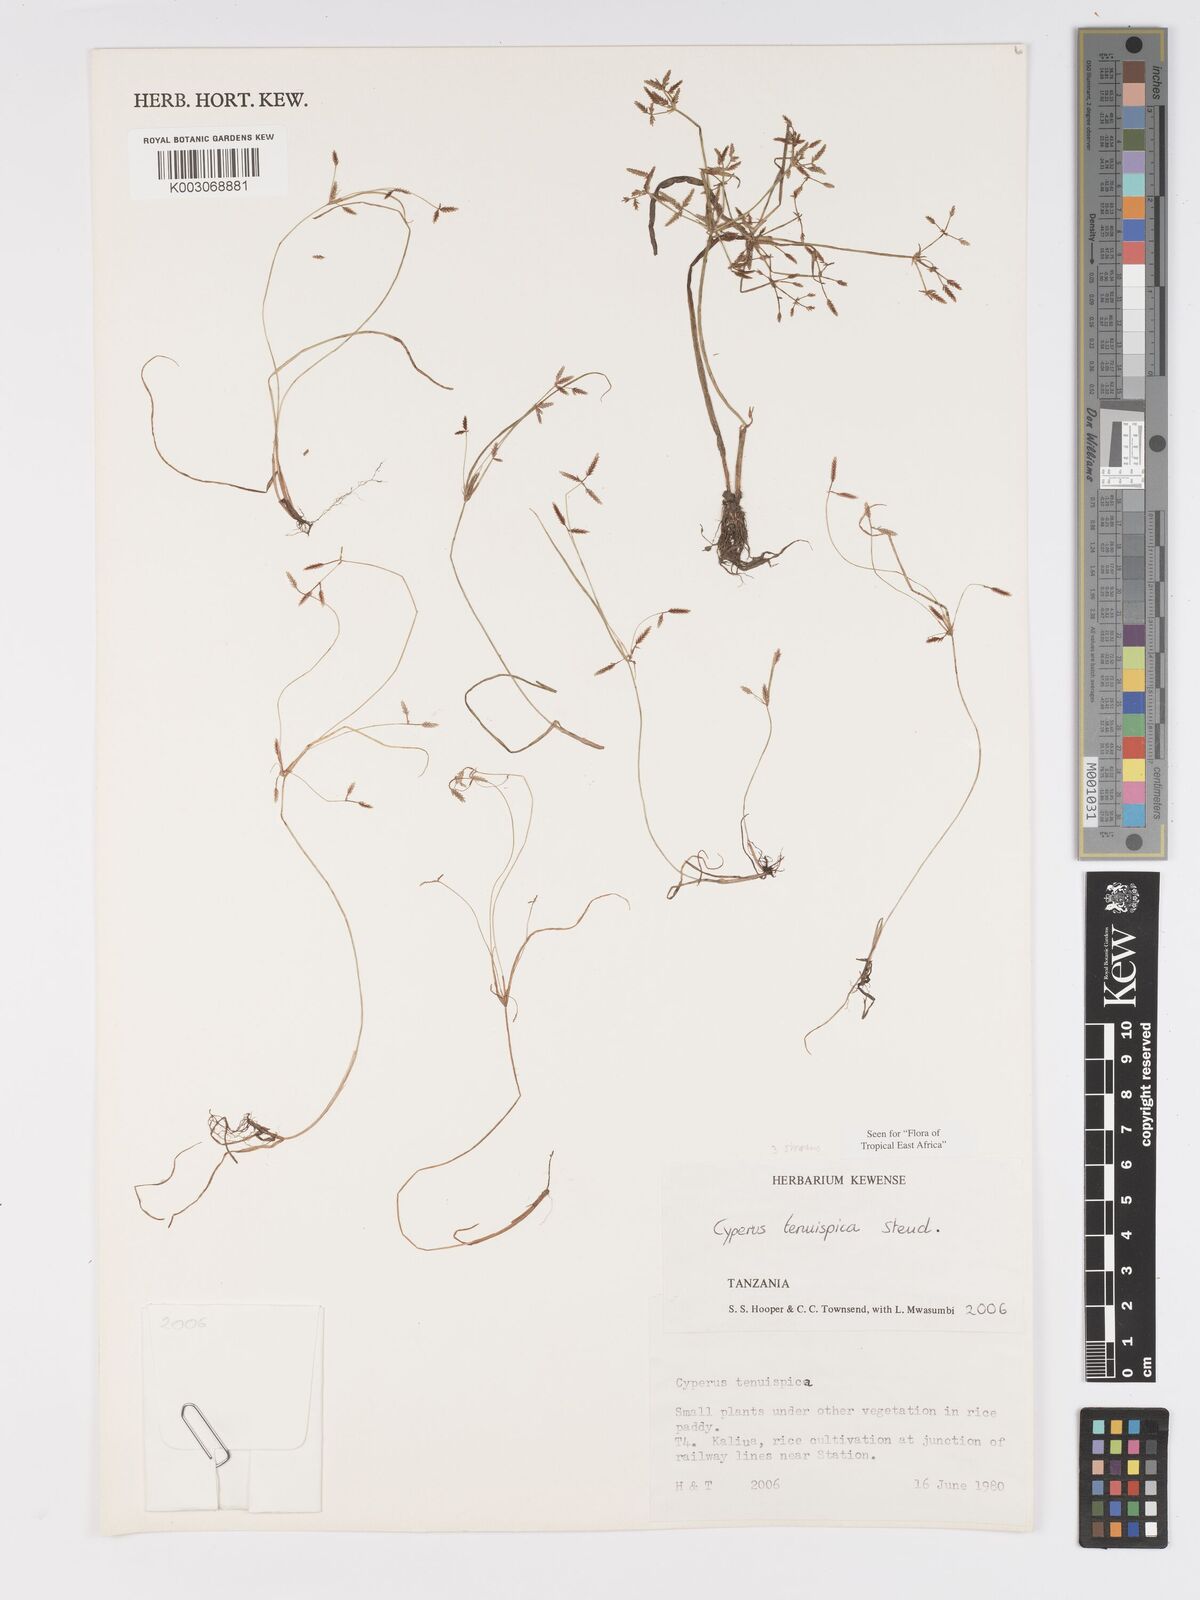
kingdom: Plantae
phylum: Tracheophyta
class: Liliopsida
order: Poales
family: Cyperaceae
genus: Cyperus
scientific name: Cyperus tenuispica
